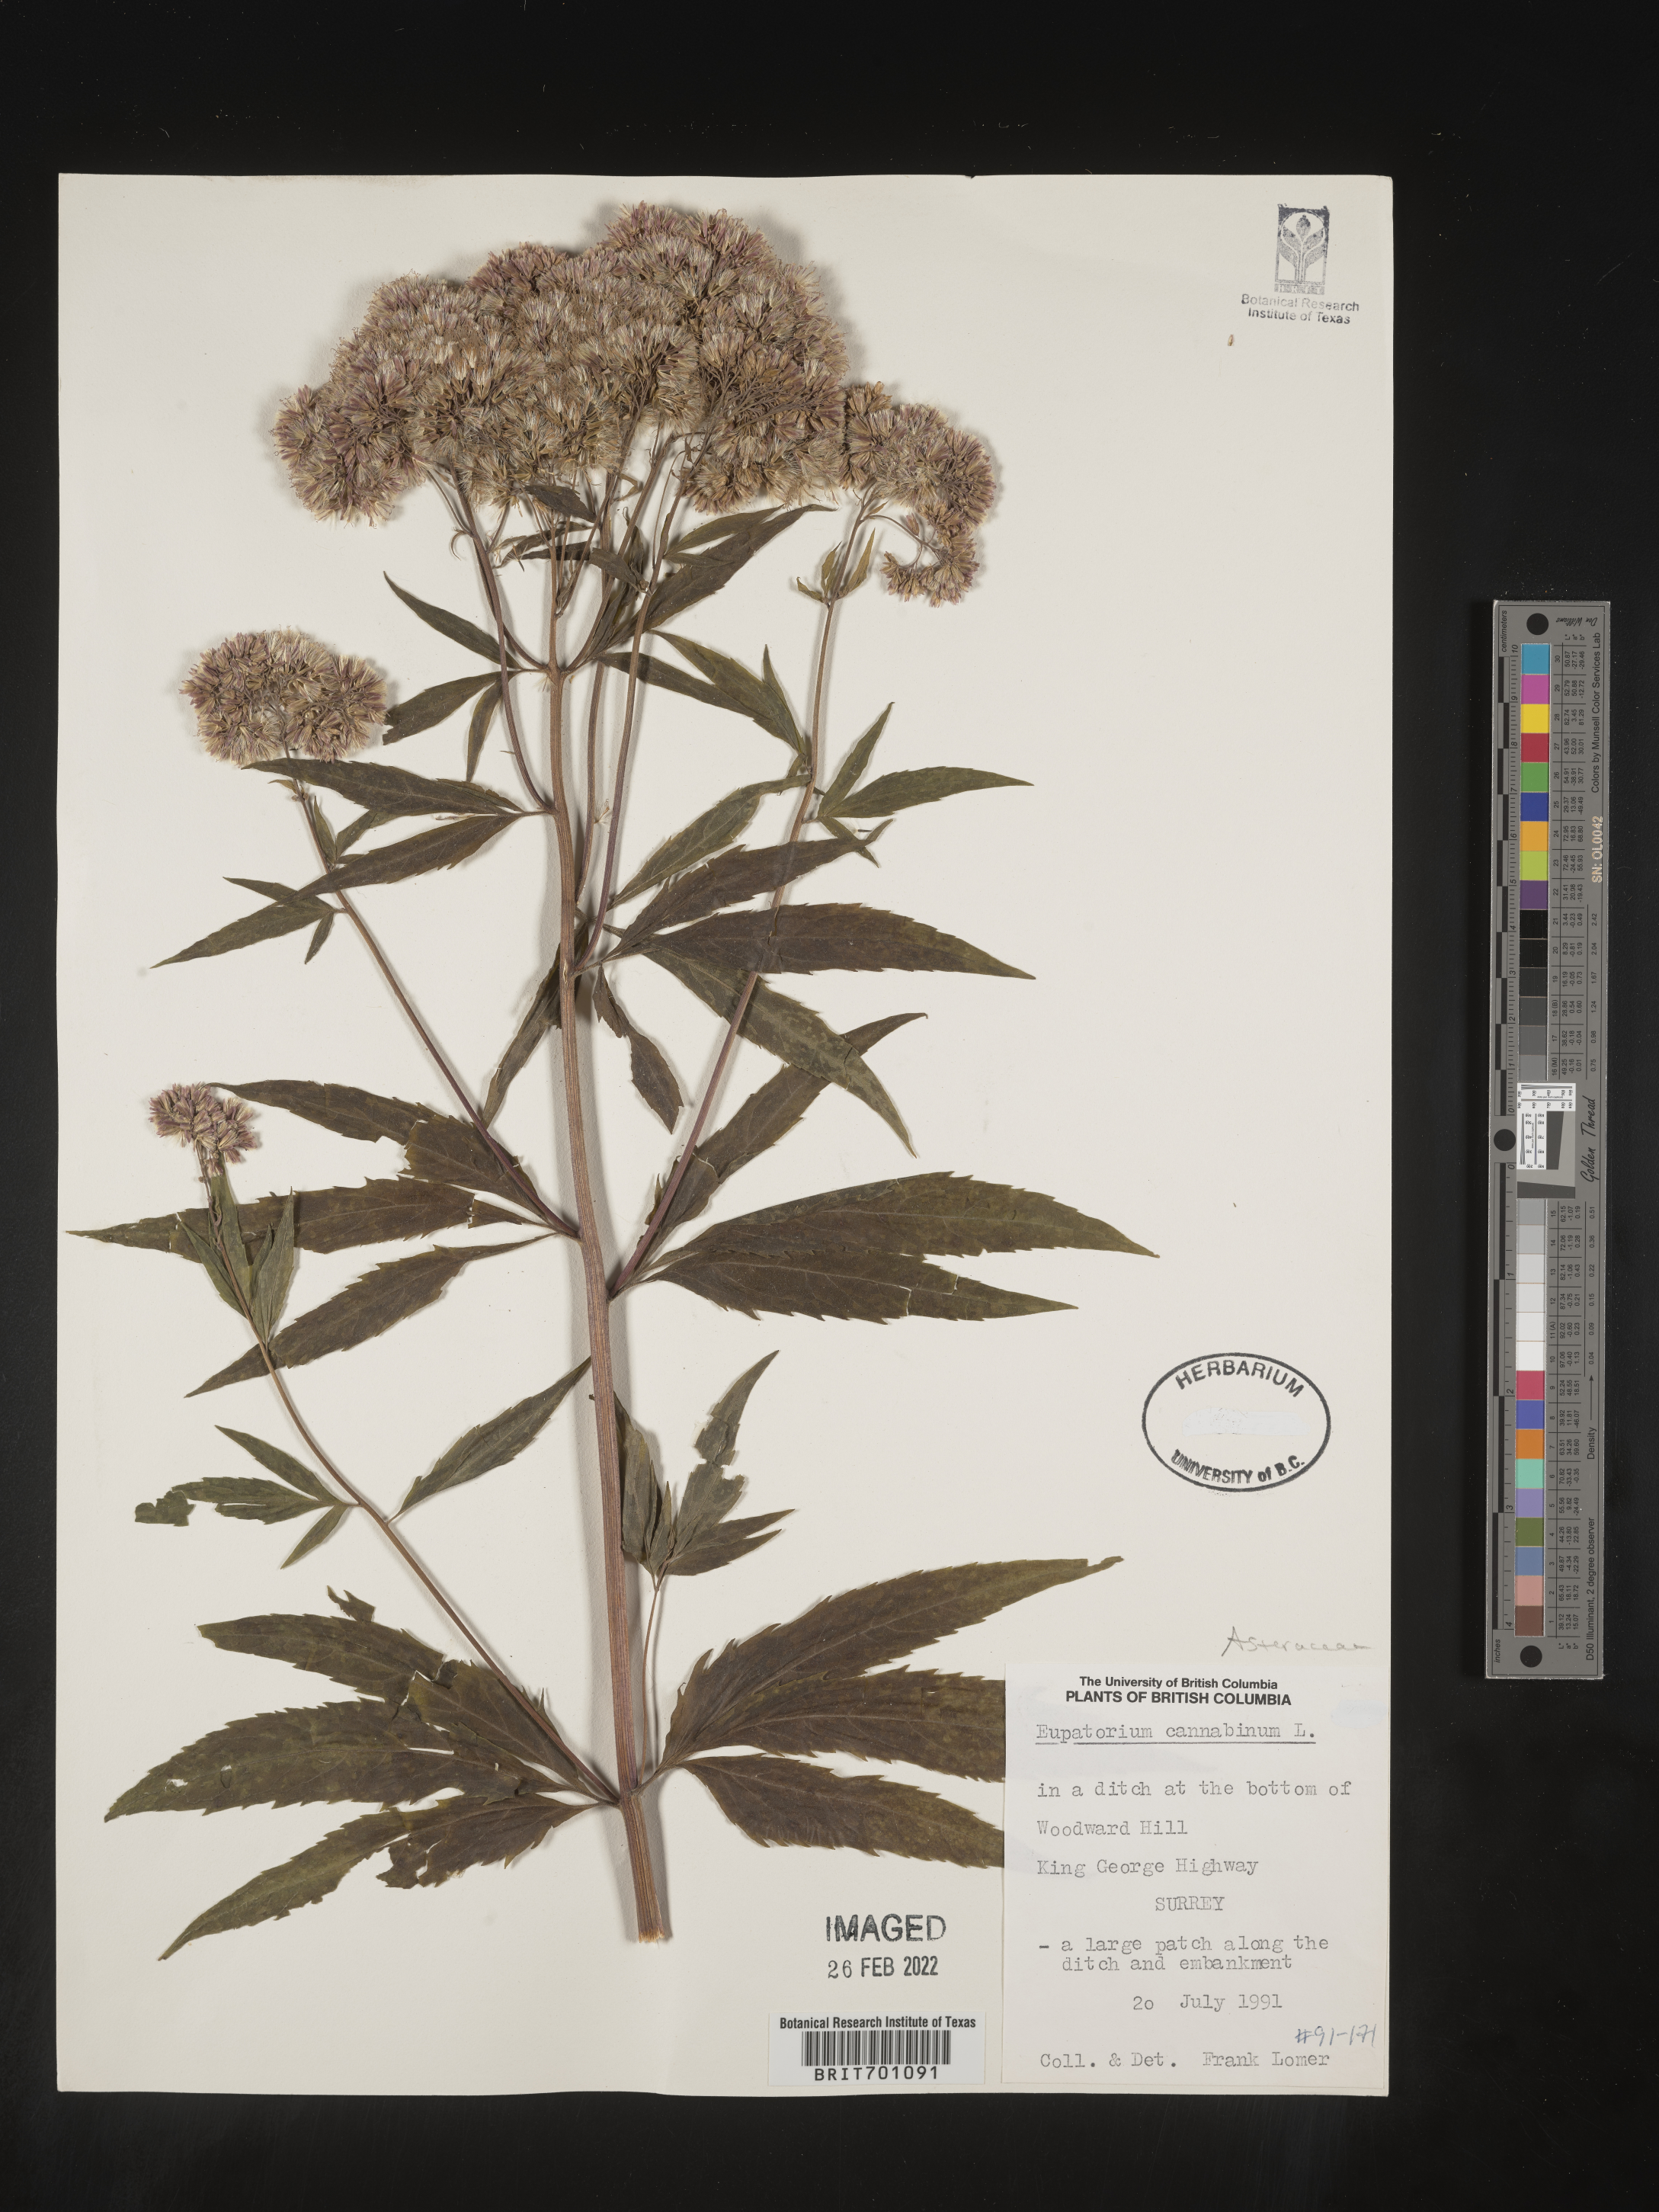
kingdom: Plantae
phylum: Tracheophyta
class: Magnoliopsida
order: Asterales
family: Asteraceae
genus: Eupatorium
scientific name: Eupatorium cannabinum
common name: Hemp-agrimony
